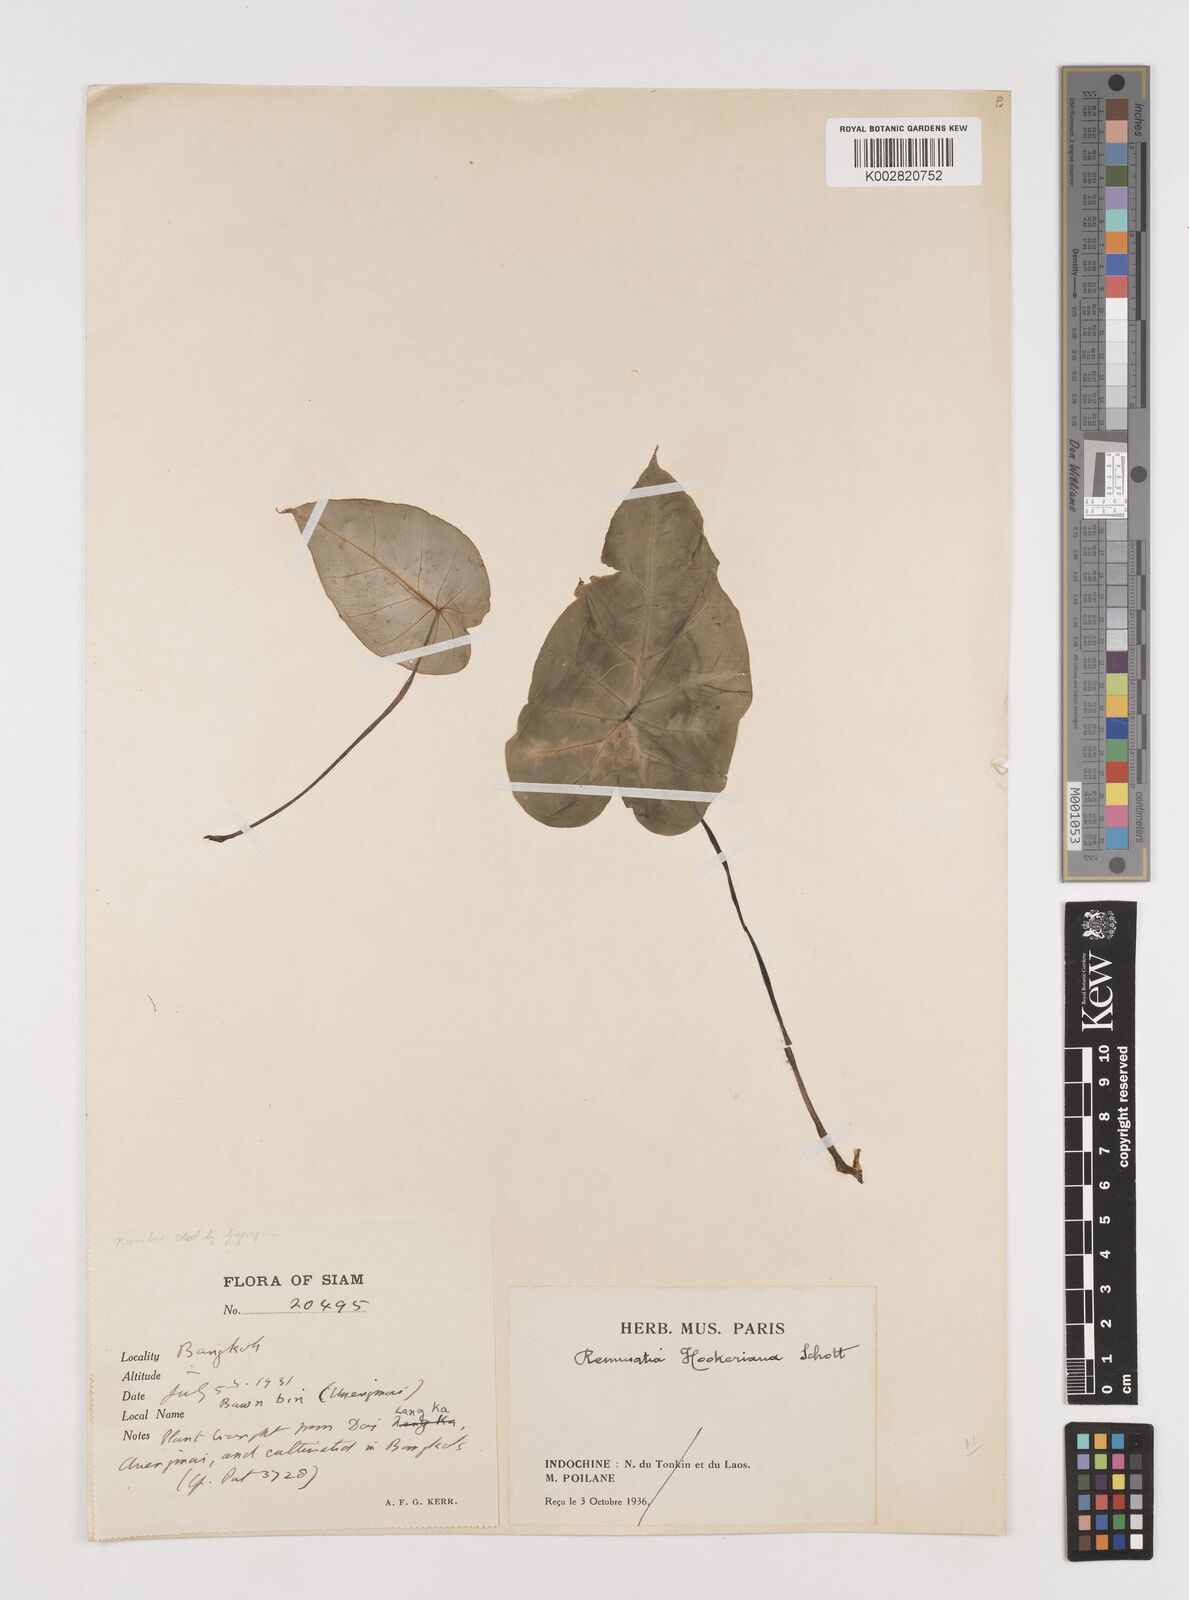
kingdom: Plantae
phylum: Tracheophyta
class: Liliopsida
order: Alismatales
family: Araceae
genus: Remusatia
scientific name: Remusatia hookeriana
